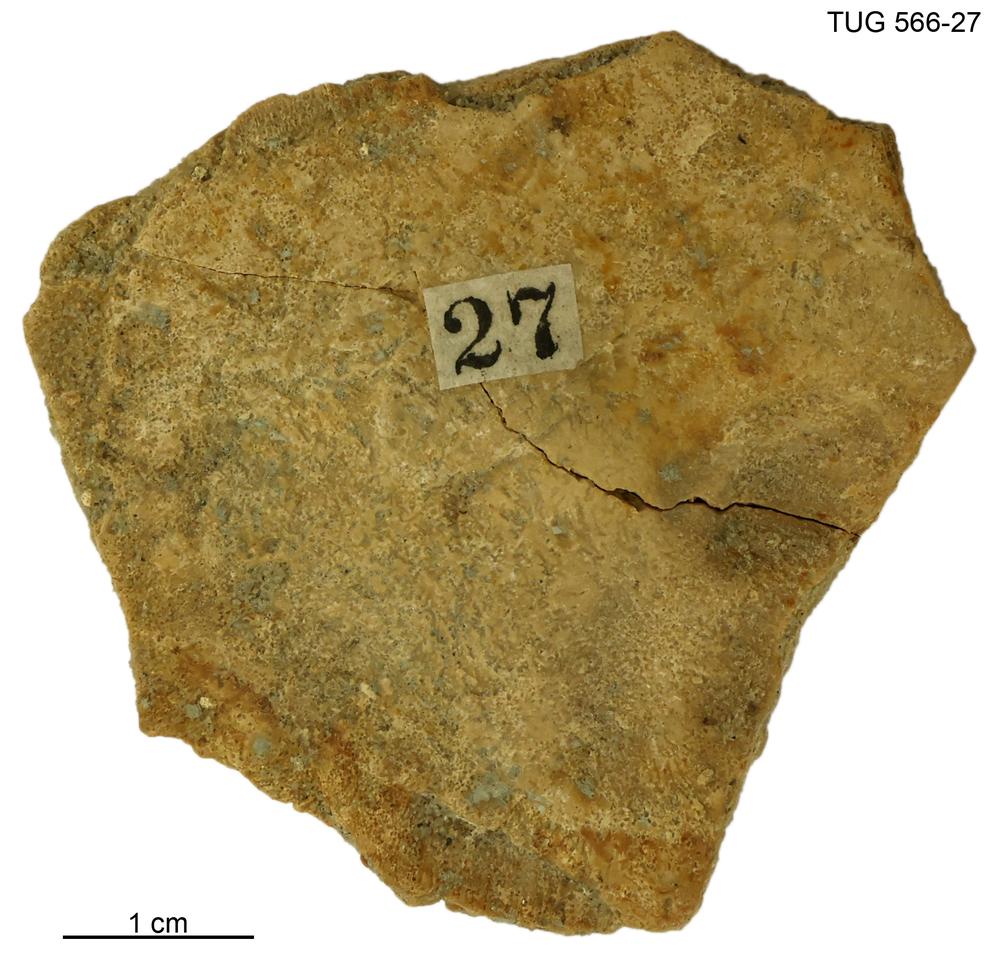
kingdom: Animalia
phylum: Chordata
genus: Homosteus
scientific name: Homosteus sulcatus
